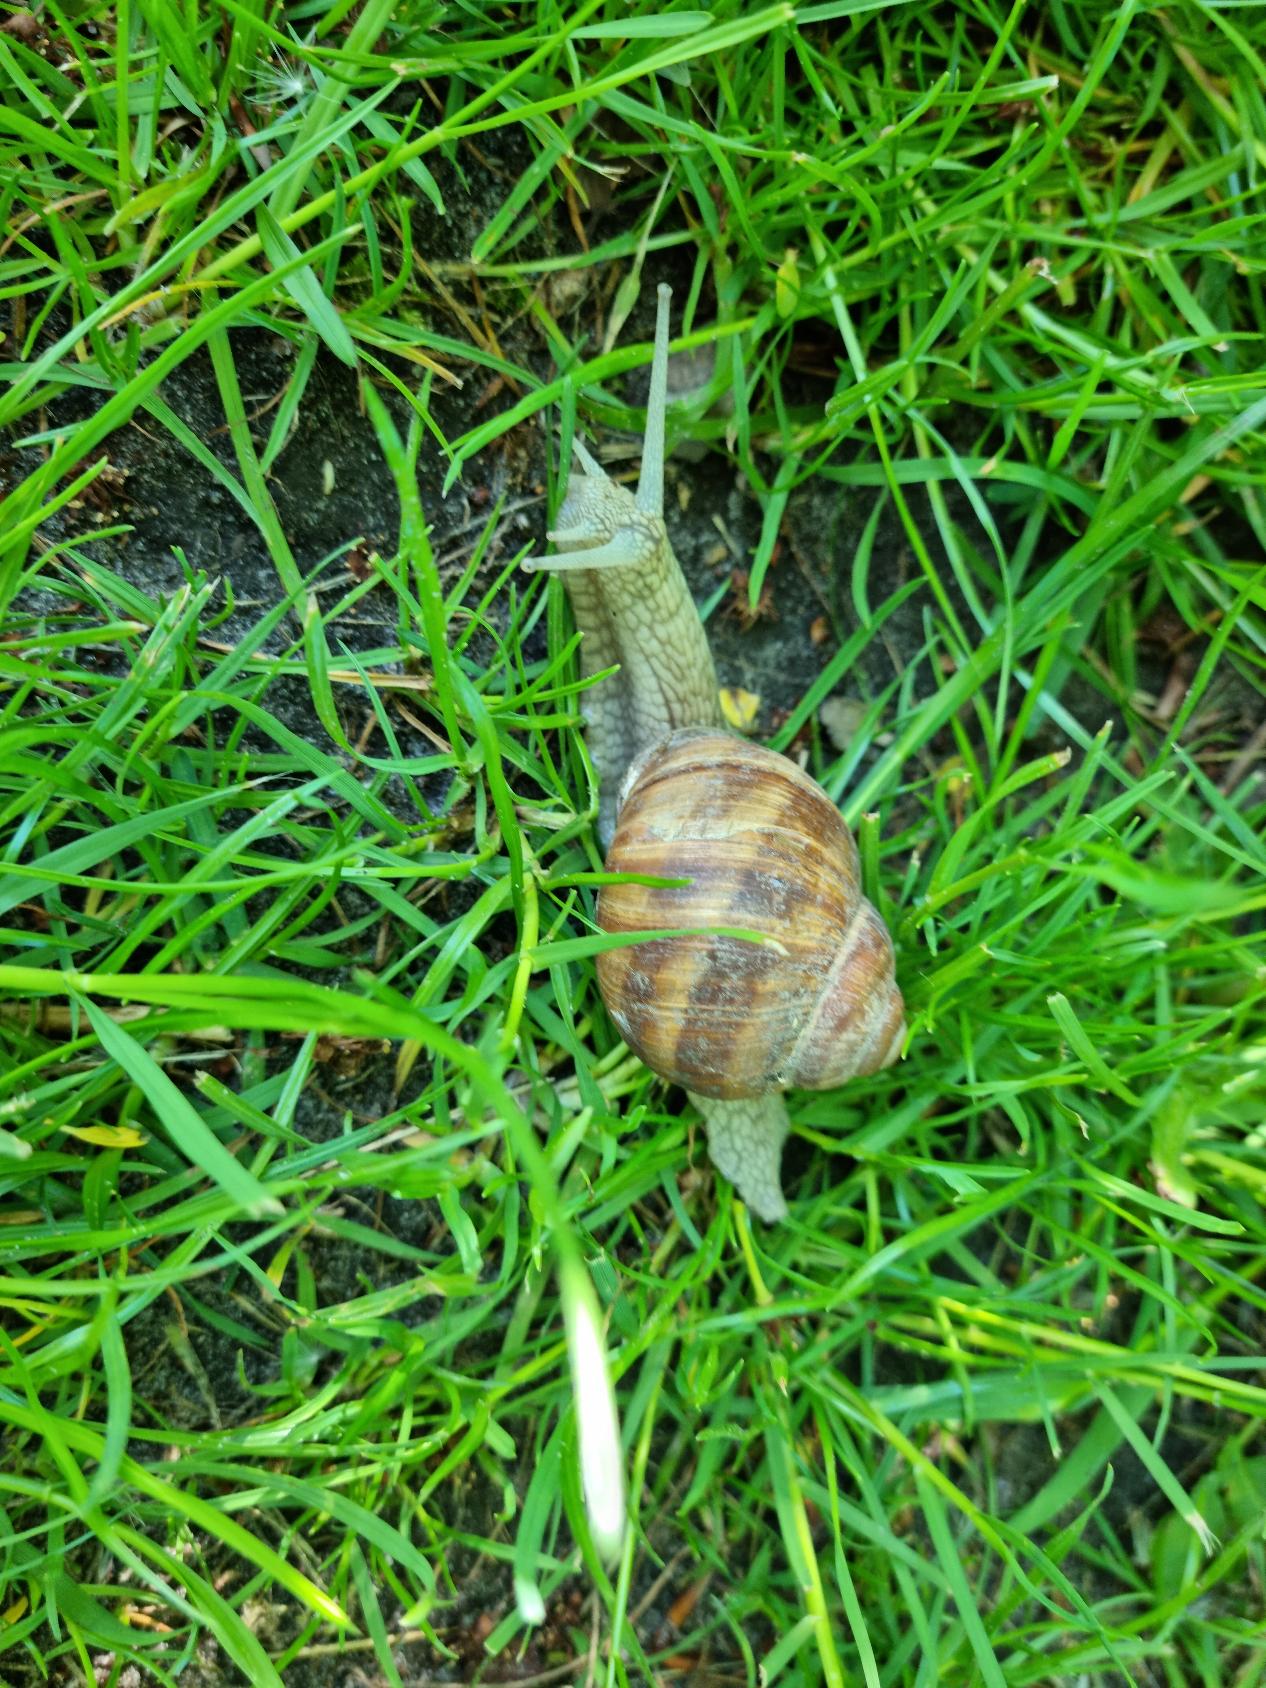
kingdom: Animalia
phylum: Mollusca
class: Gastropoda
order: Stylommatophora
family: Helicidae
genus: Helix
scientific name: Helix pomatia
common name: Vinbjergsnegl
